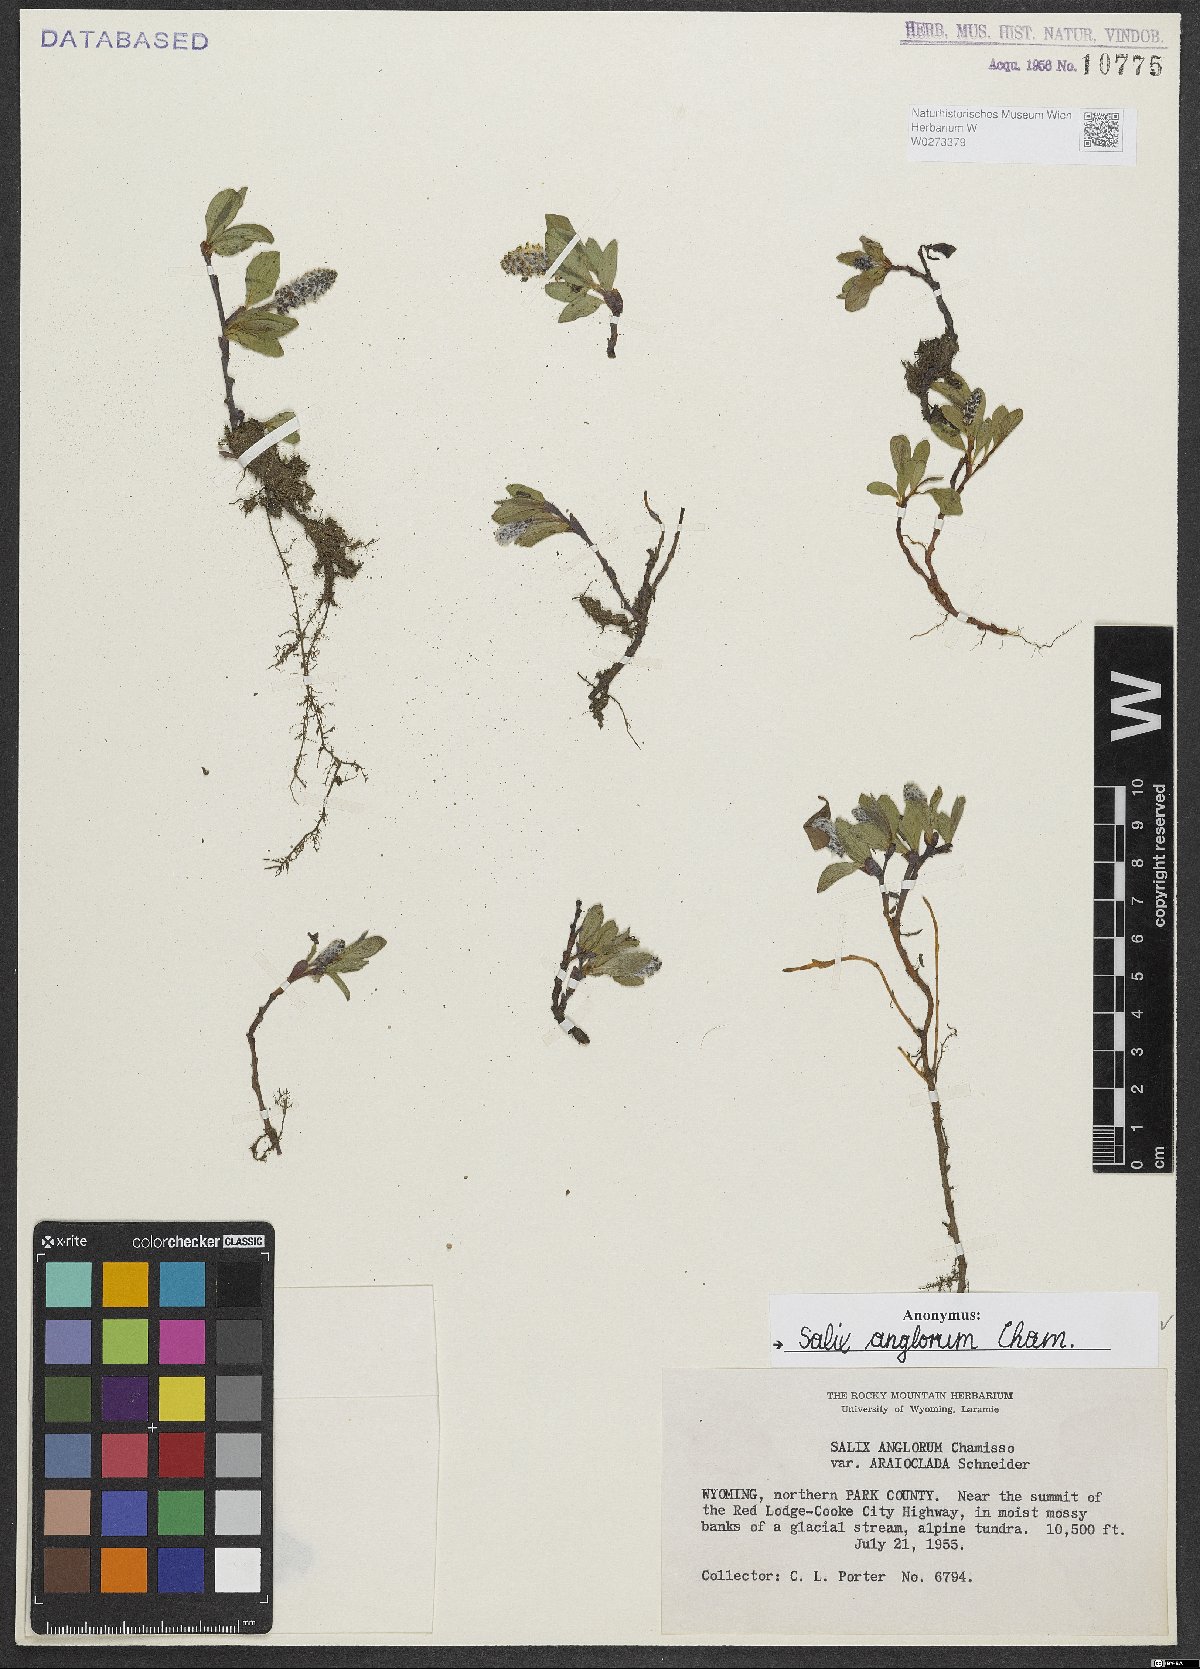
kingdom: Plantae
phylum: Tracheophyta
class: Magnoliopsida
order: Malpighiales
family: Salicaceae
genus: Salix
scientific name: Salix arctica
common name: Arctic willow
